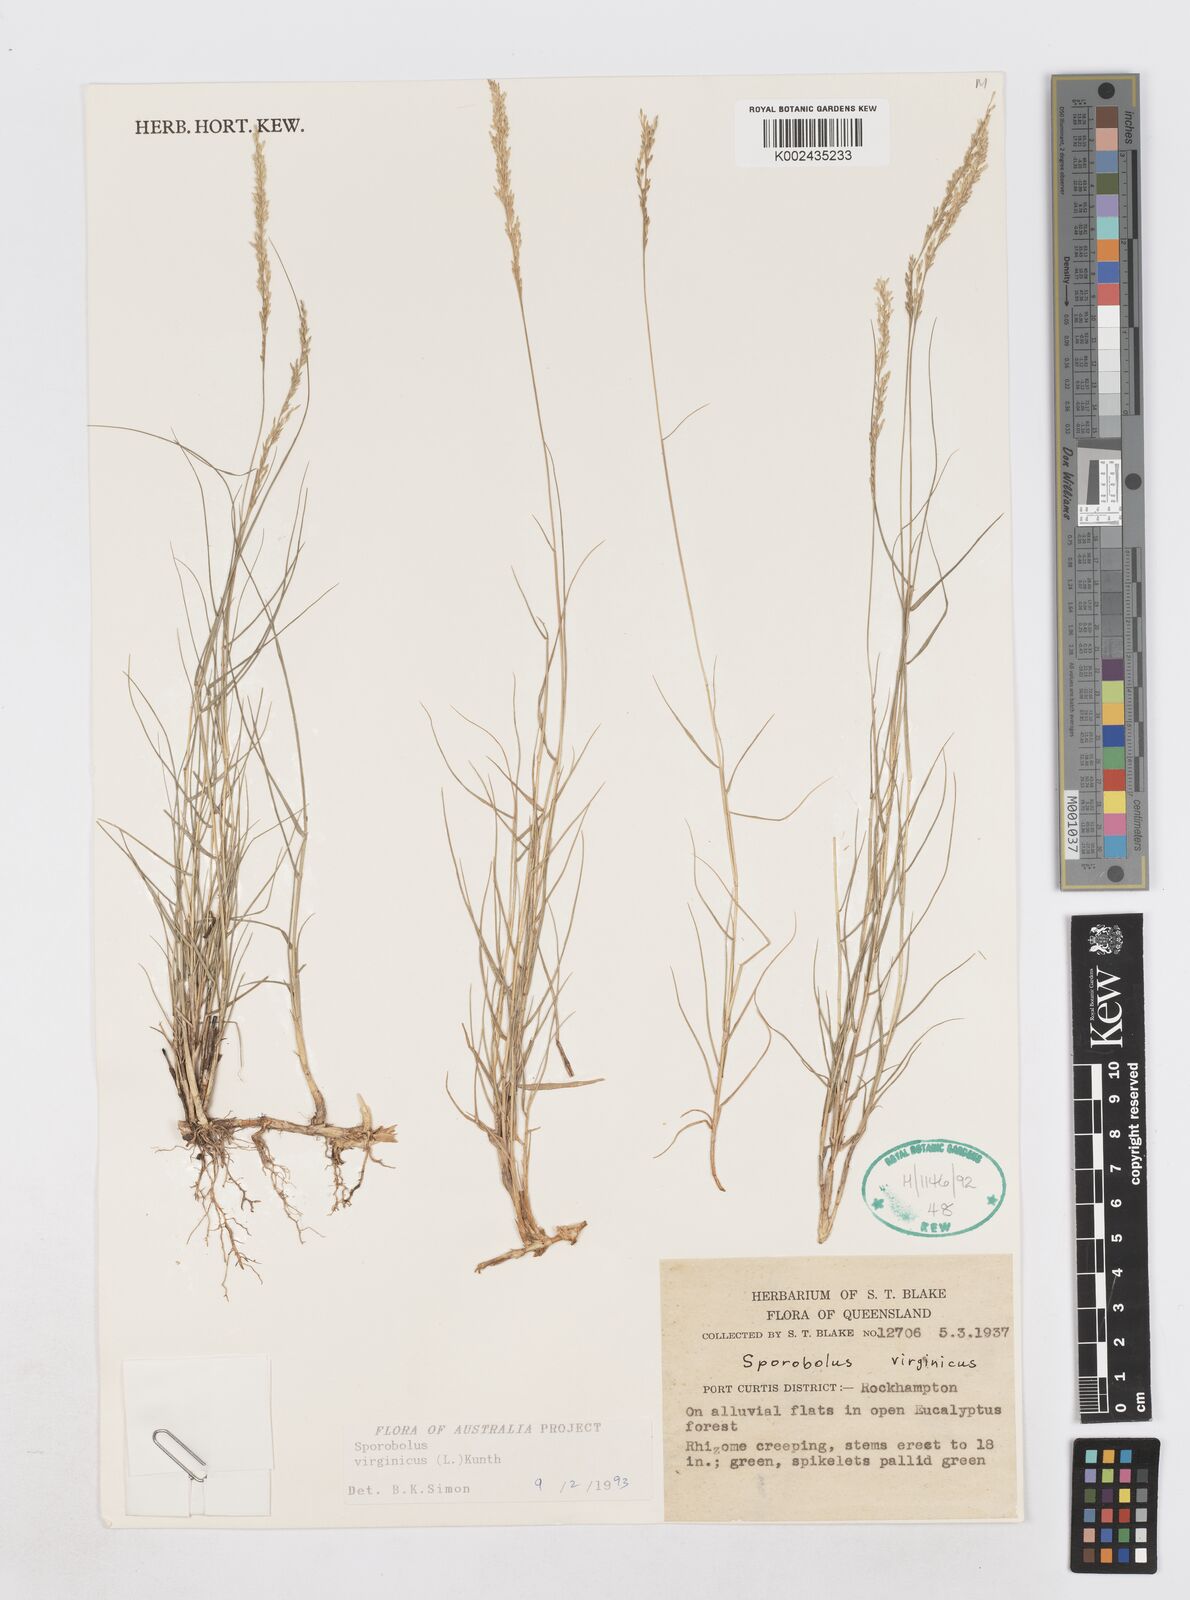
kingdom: Plantae
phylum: Tracheophyta
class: Liliopsida
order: Poales
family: Poaceae
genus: Sporobolus
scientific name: Sporobolus virginicus
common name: Beach dropseed
